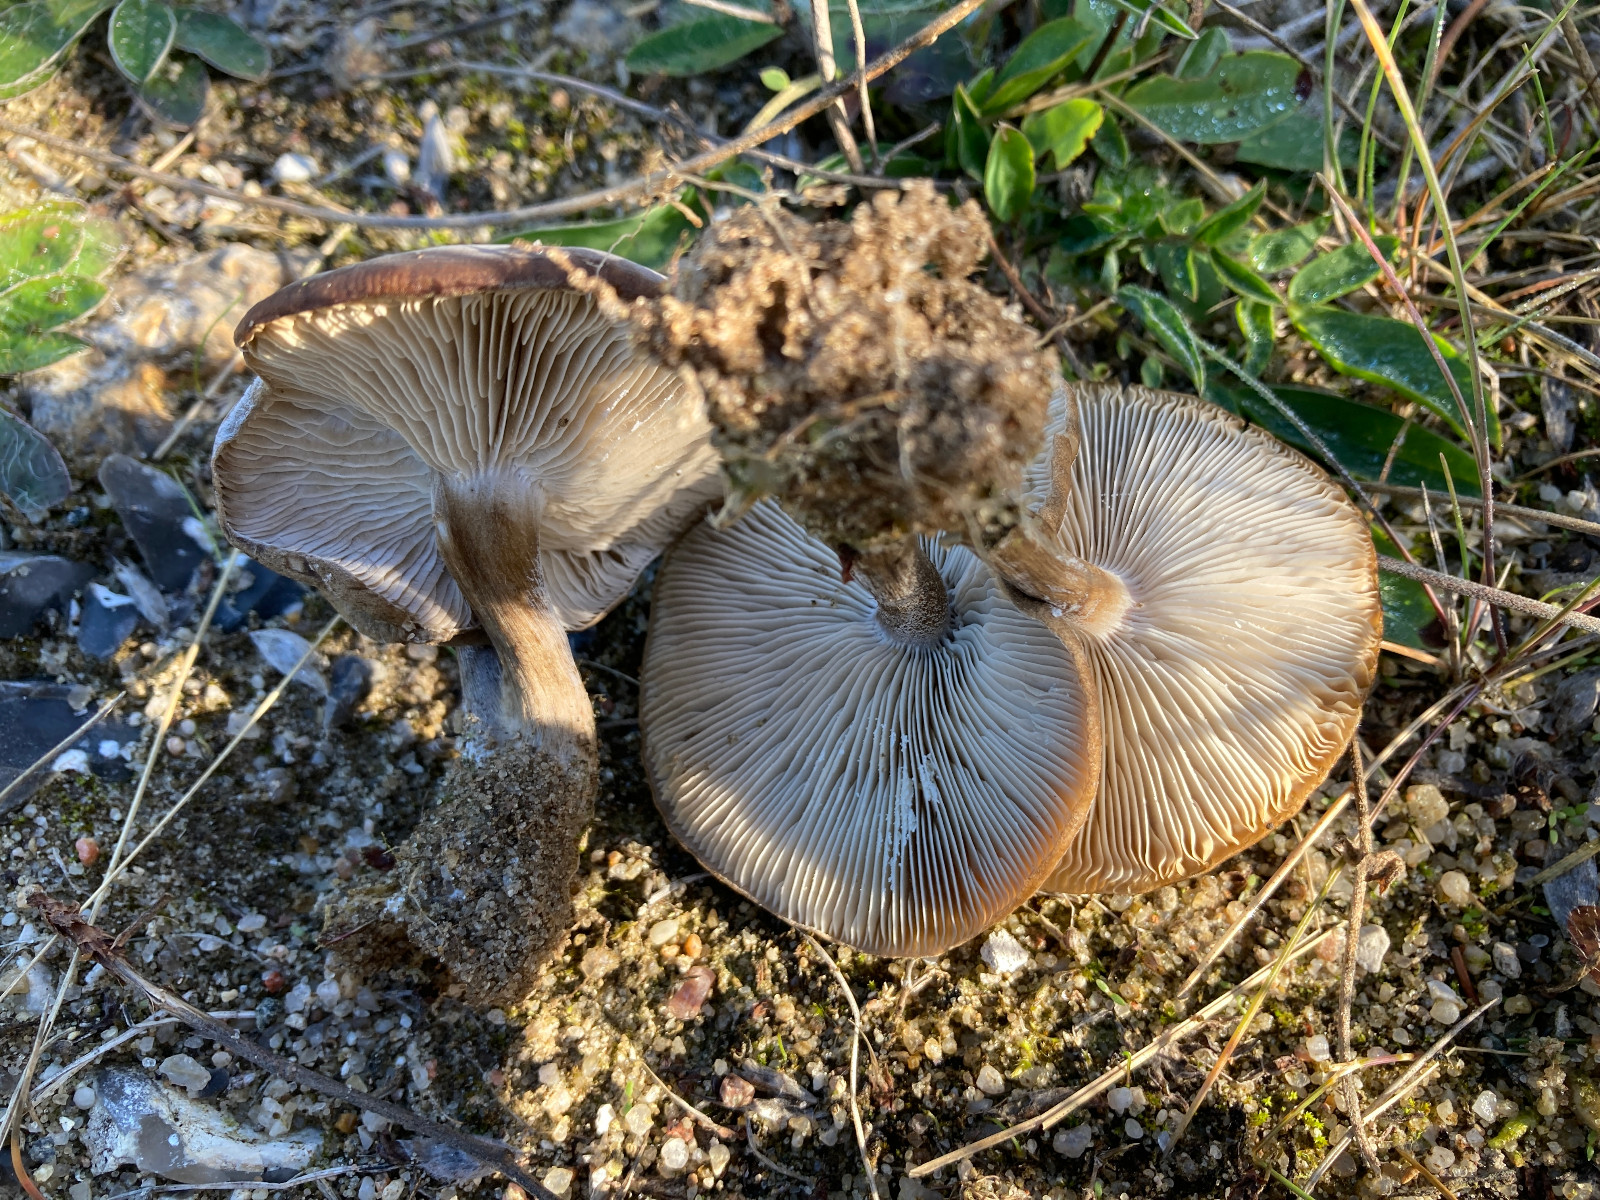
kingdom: Fungi
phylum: Basidiomycota
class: Agaricomycetes
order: Agaricales
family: Tricholomataceae
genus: Melanoleuca
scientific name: Melanoleuca tristis
